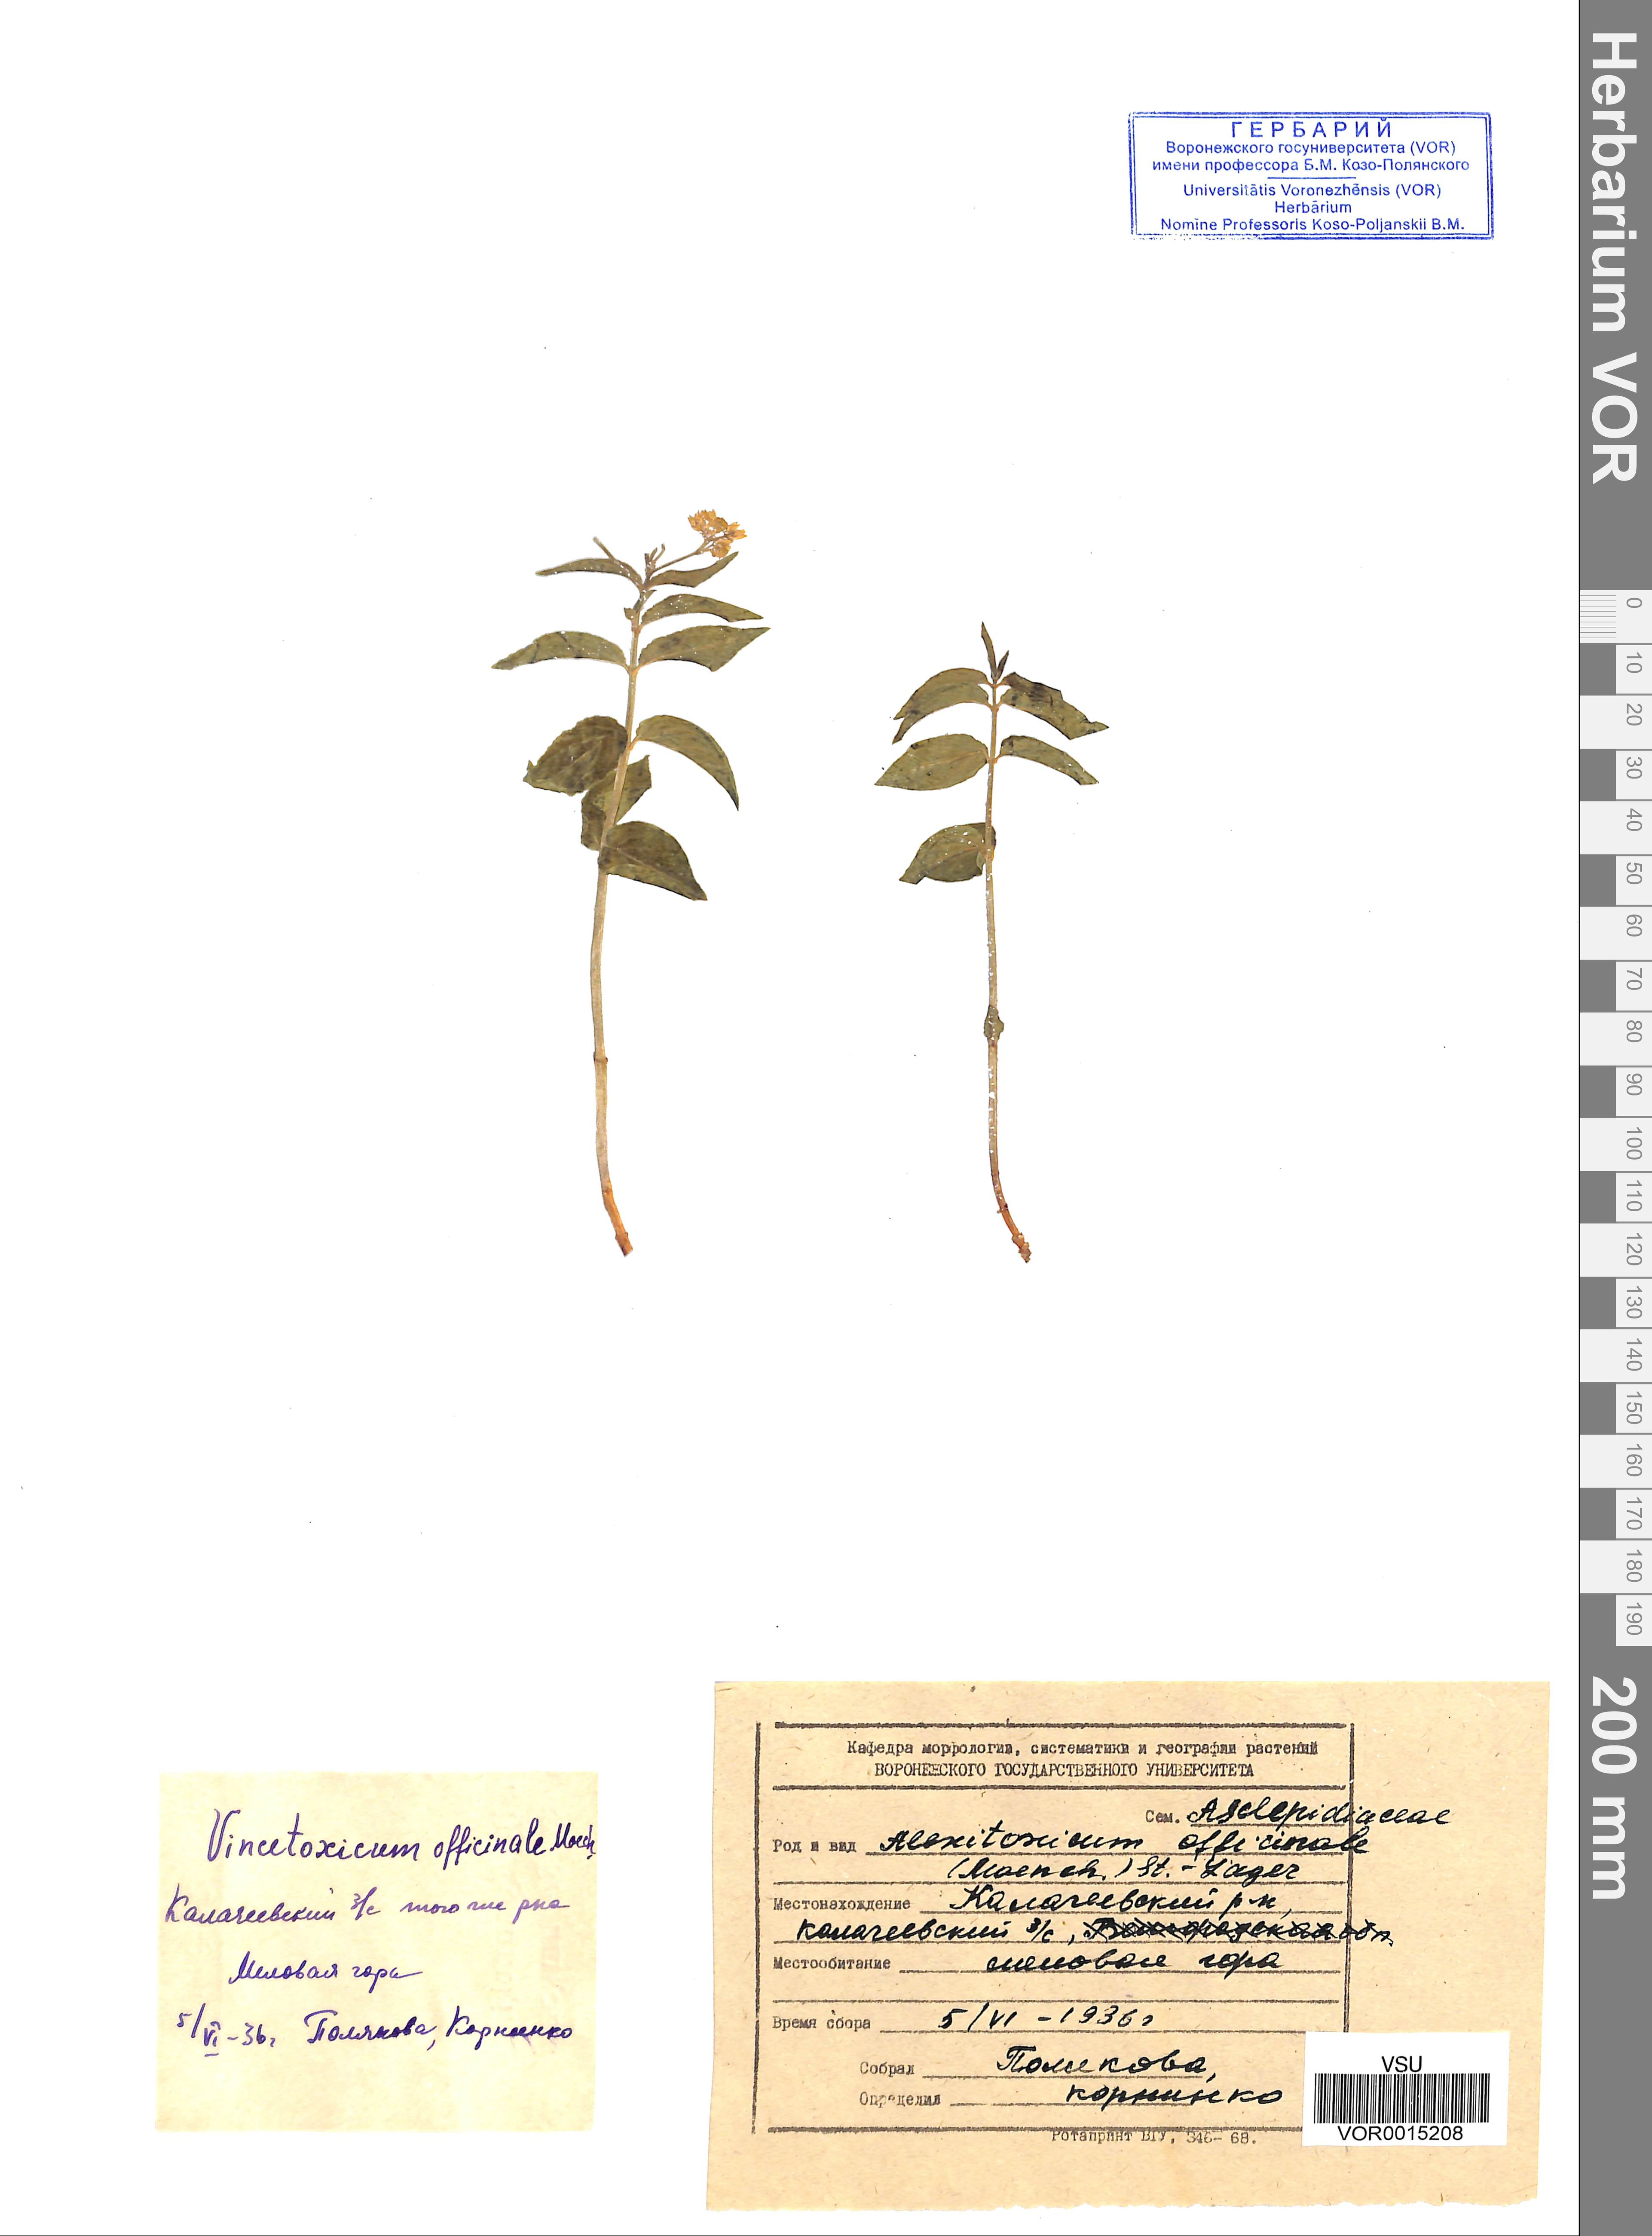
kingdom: Plantae
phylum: Tracheophyta
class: Magnoliopsida
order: Gentianales
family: Apocynaceae
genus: Vincetoxicum
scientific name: Vincetoxicum hirundinaria
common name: White swallowwort
